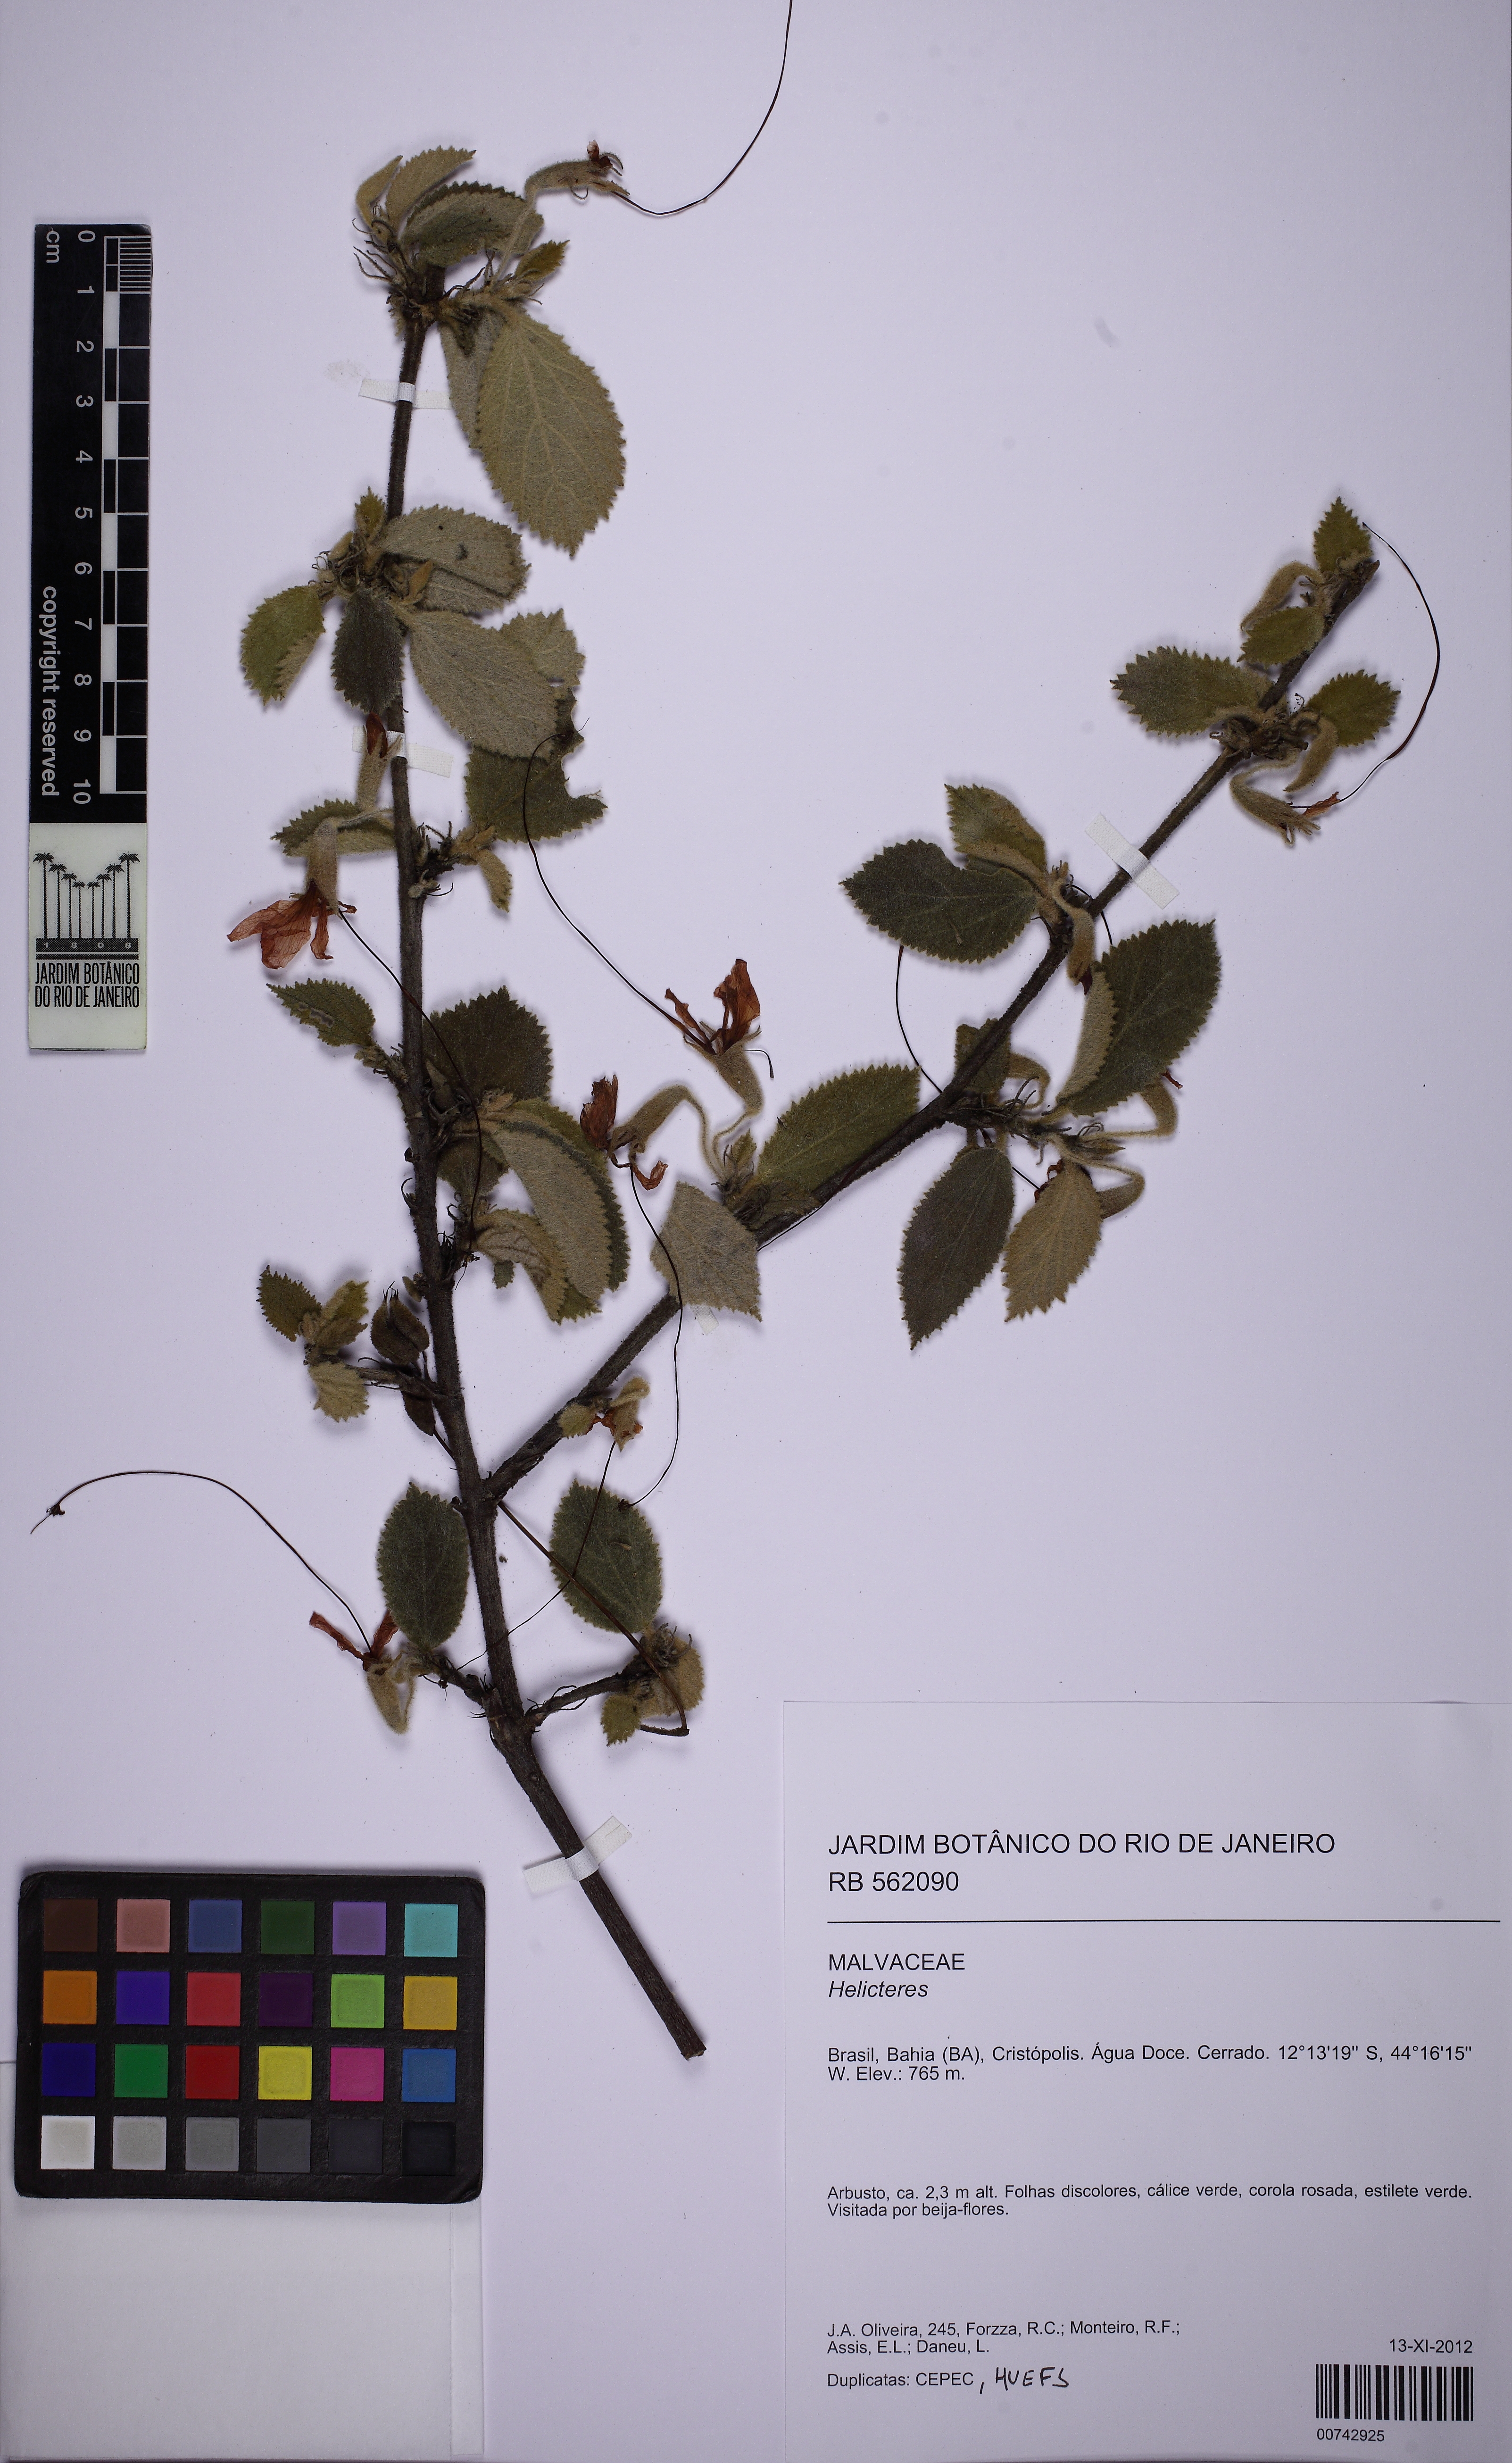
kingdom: Plantae
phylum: Tracheophyta
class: Magnoliopsida
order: Malvales
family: Malvaceae
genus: Helicteres
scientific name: Helicteres
